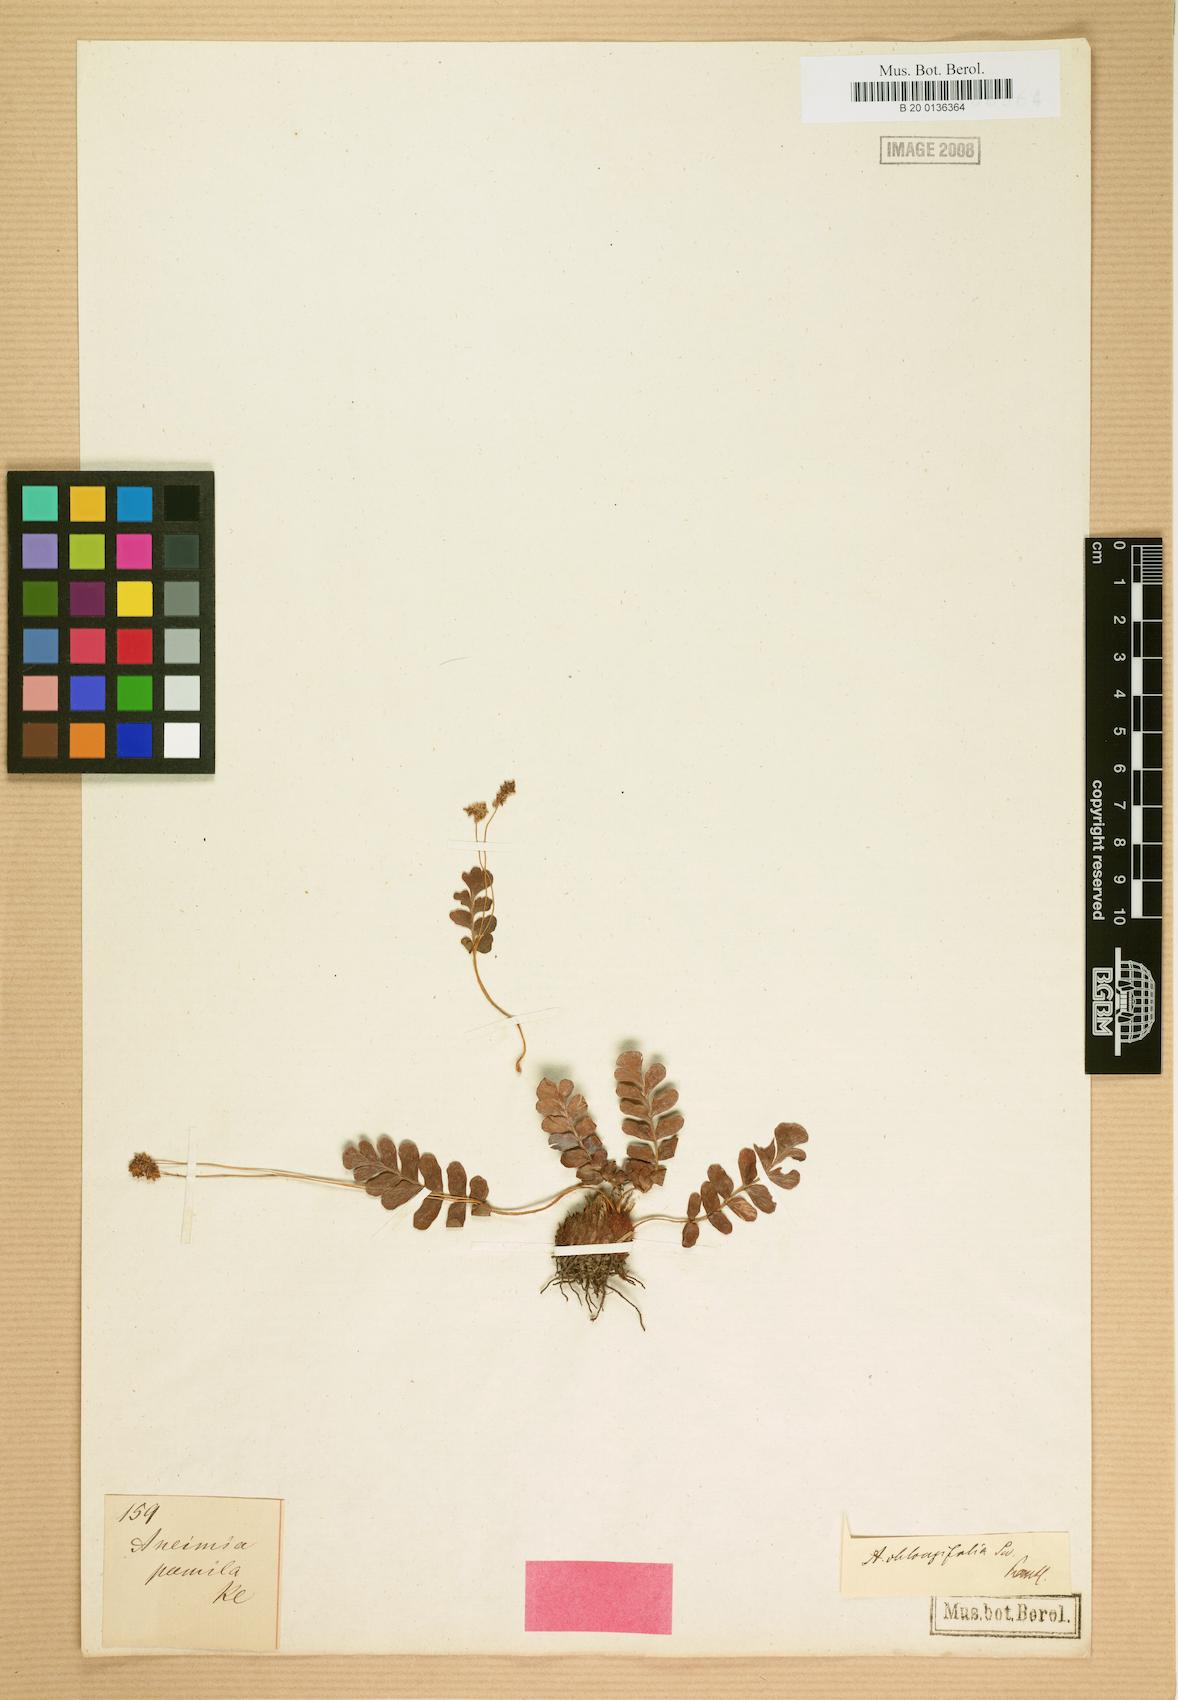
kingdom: Plantae
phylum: Tracheophyta
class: Polypodiopsida
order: Schizaeales
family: Anemiaceae
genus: Anemia
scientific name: Anemia oblongifolia
